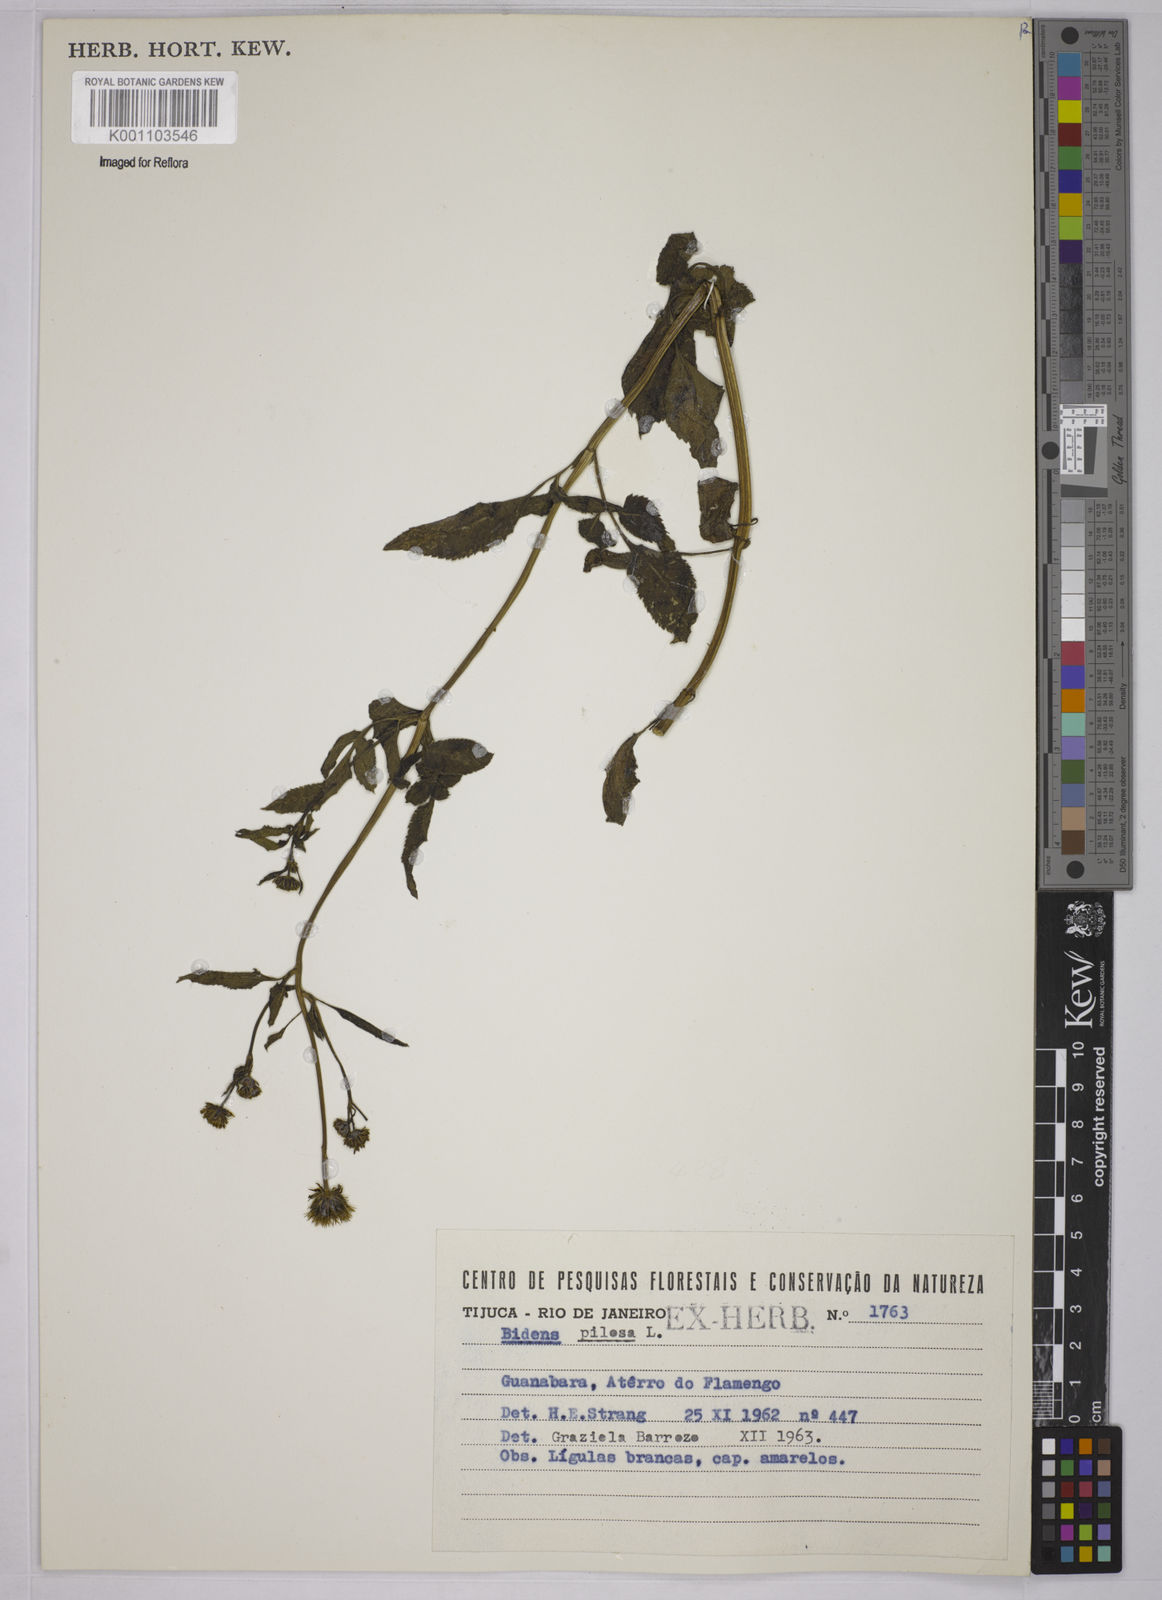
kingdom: Plantae
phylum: Tracheophyta
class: Magnoliopsida
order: Asterales
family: Asteraceae
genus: Bidens
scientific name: Bidens pilosa
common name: Black-jack
